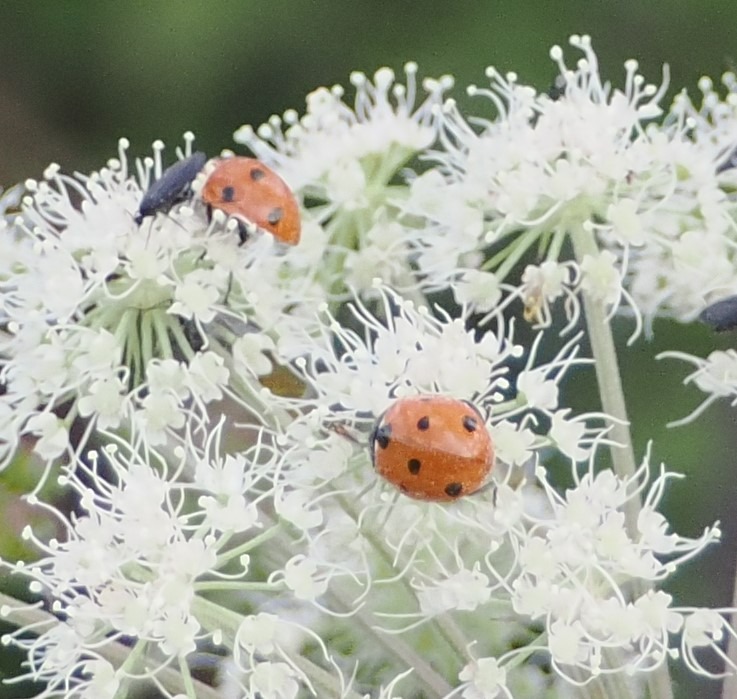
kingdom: Animalia
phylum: Arthropoda
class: Insecta
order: Coleoptera
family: Coccinellidae
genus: Coccinella
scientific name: Coccinella septempunctata
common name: Syvplettet mariehøne
